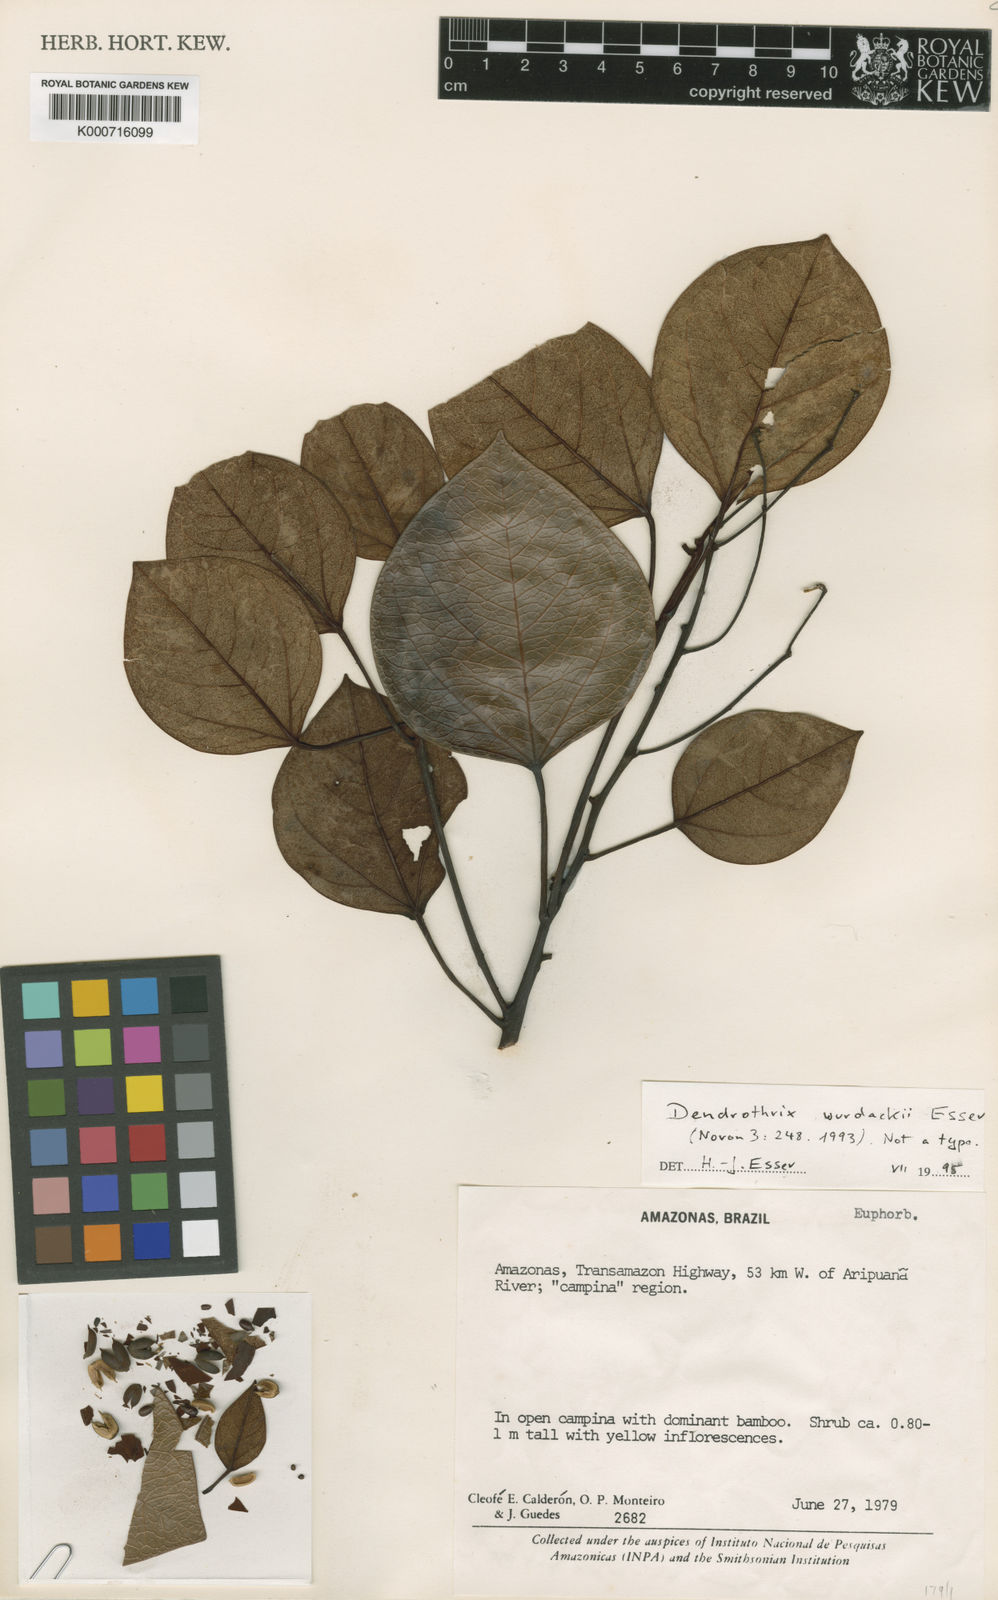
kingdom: Plantae
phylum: Tracheophyta
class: Magnoliopsida
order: Malpighiales
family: Euphorbiaceae
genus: Dendrothrix
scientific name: Dendrothrix wurdackii
